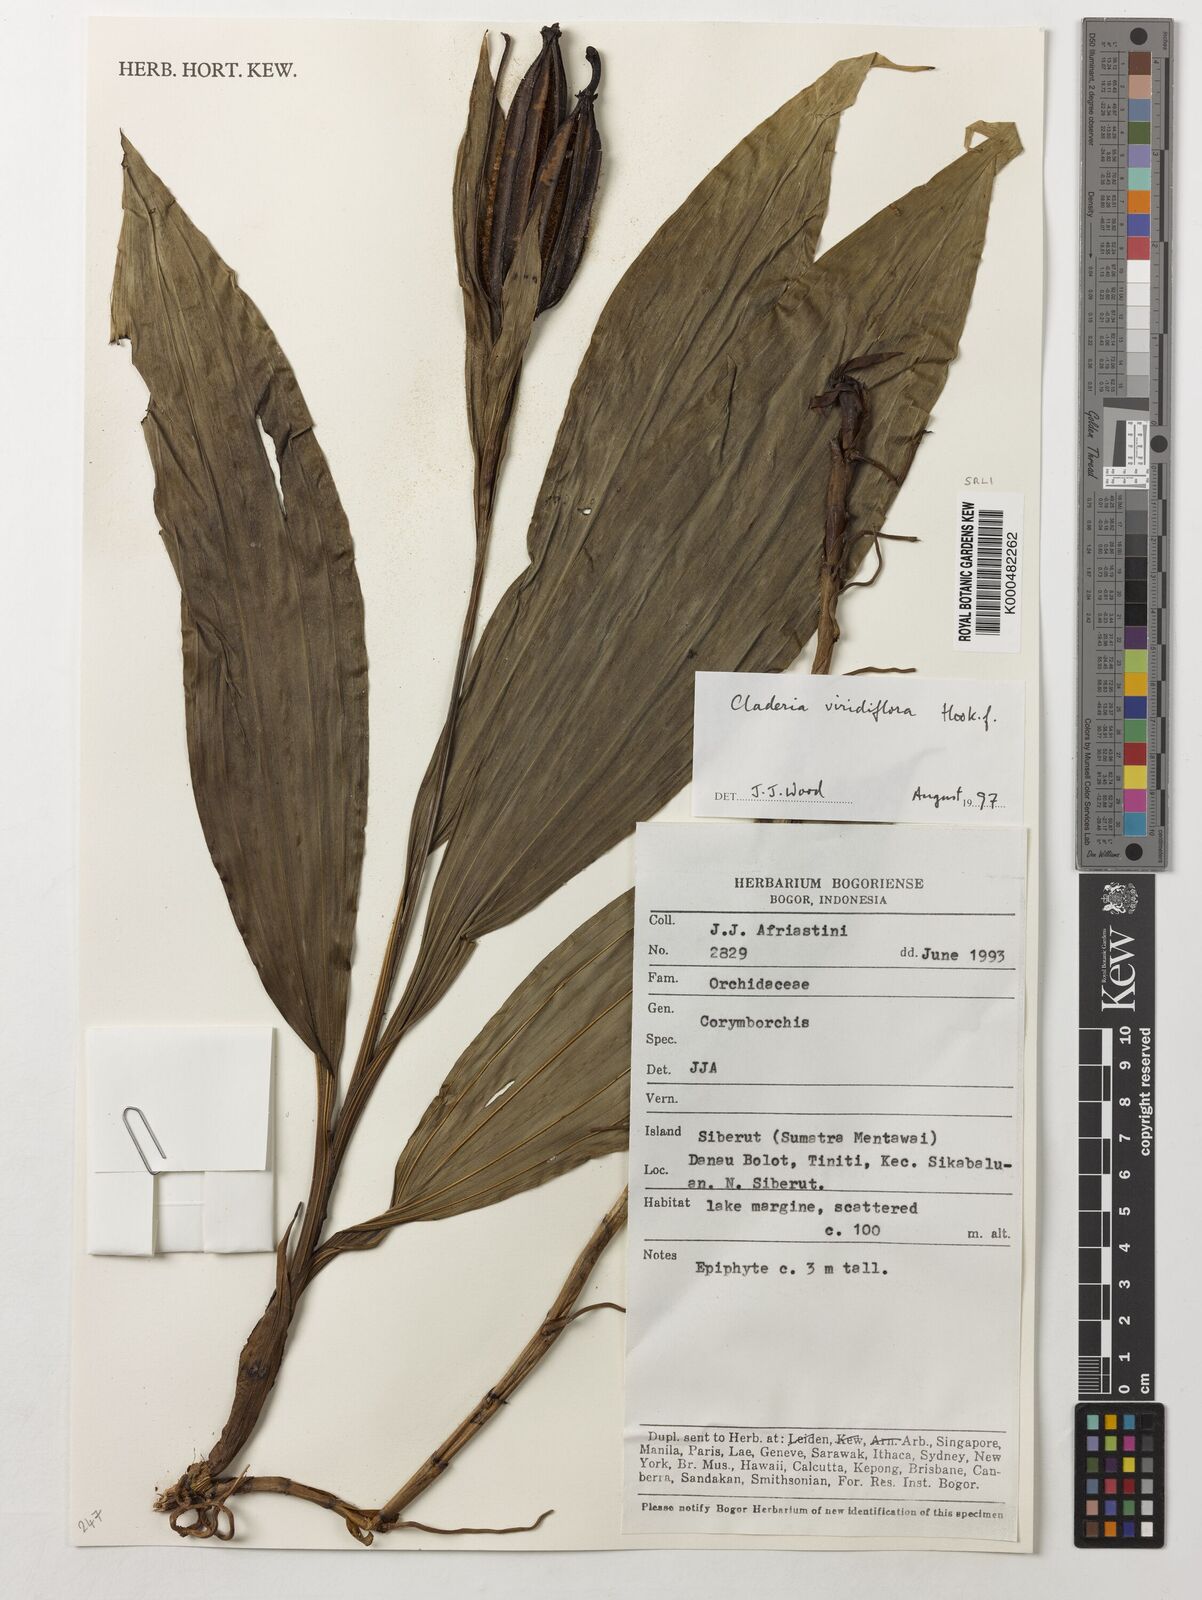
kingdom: Plantae
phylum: Tracheophyta
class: Liliopsida
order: Asparagales
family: Orchidaceae
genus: Claderia
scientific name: Claderia
